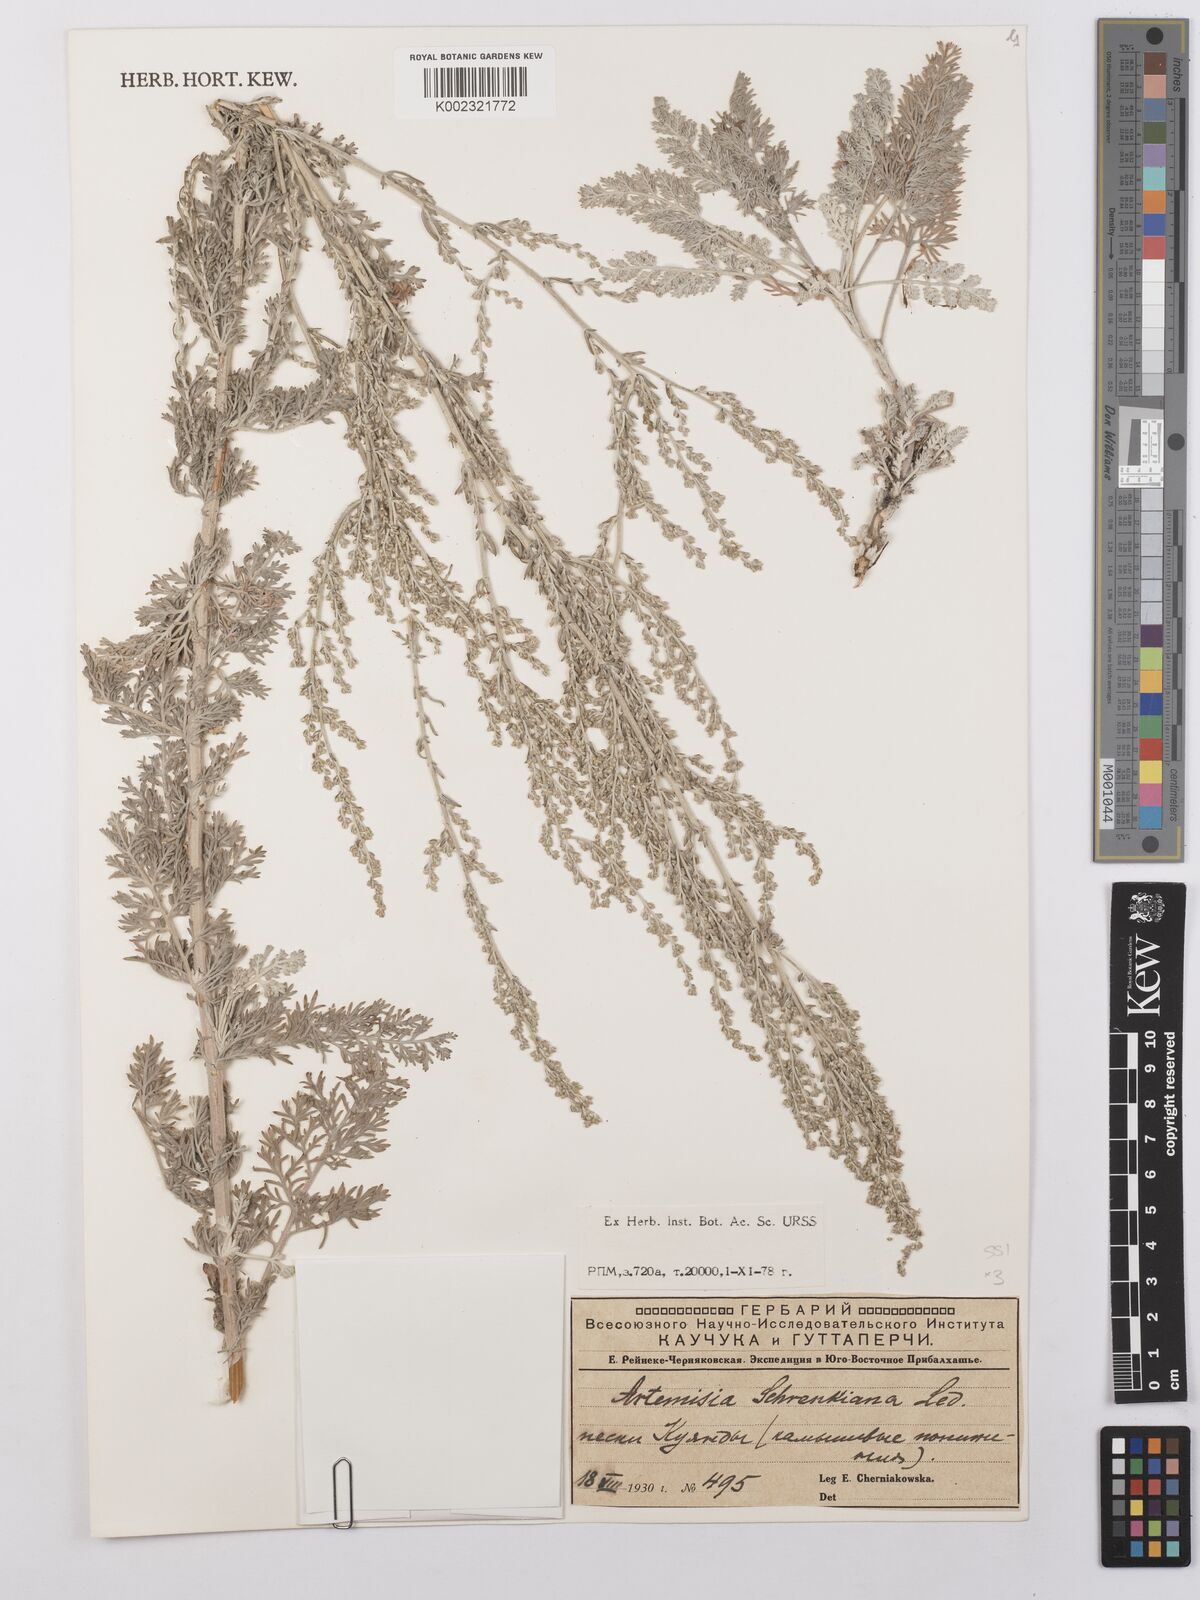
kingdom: Plantae
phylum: Tracheophyta
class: Magnoliopsida
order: Asterales
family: Asteraceae
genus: Artemisia
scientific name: Artemisia schrenkiana
